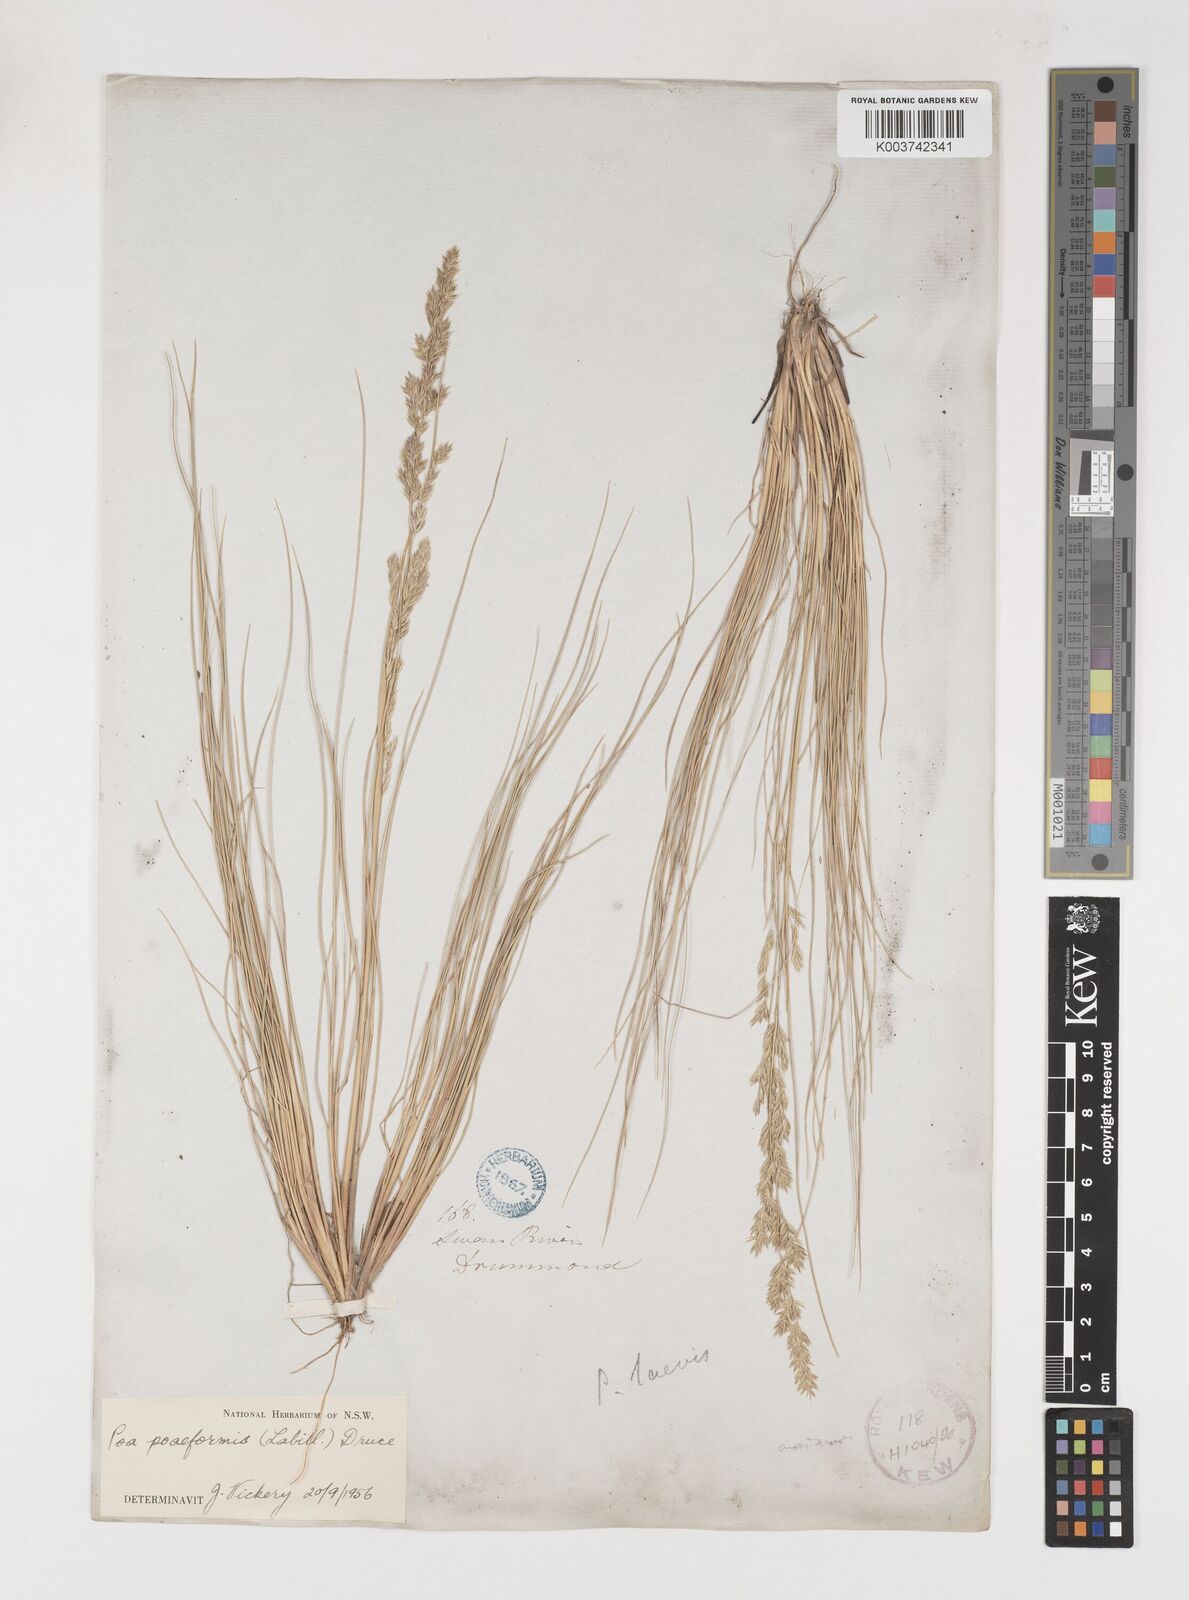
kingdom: Plantae
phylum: Tracheophyta
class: Liliopsida
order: Poales
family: Poaceae
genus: Poa
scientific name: Poa poiformis
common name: Tussock poa
